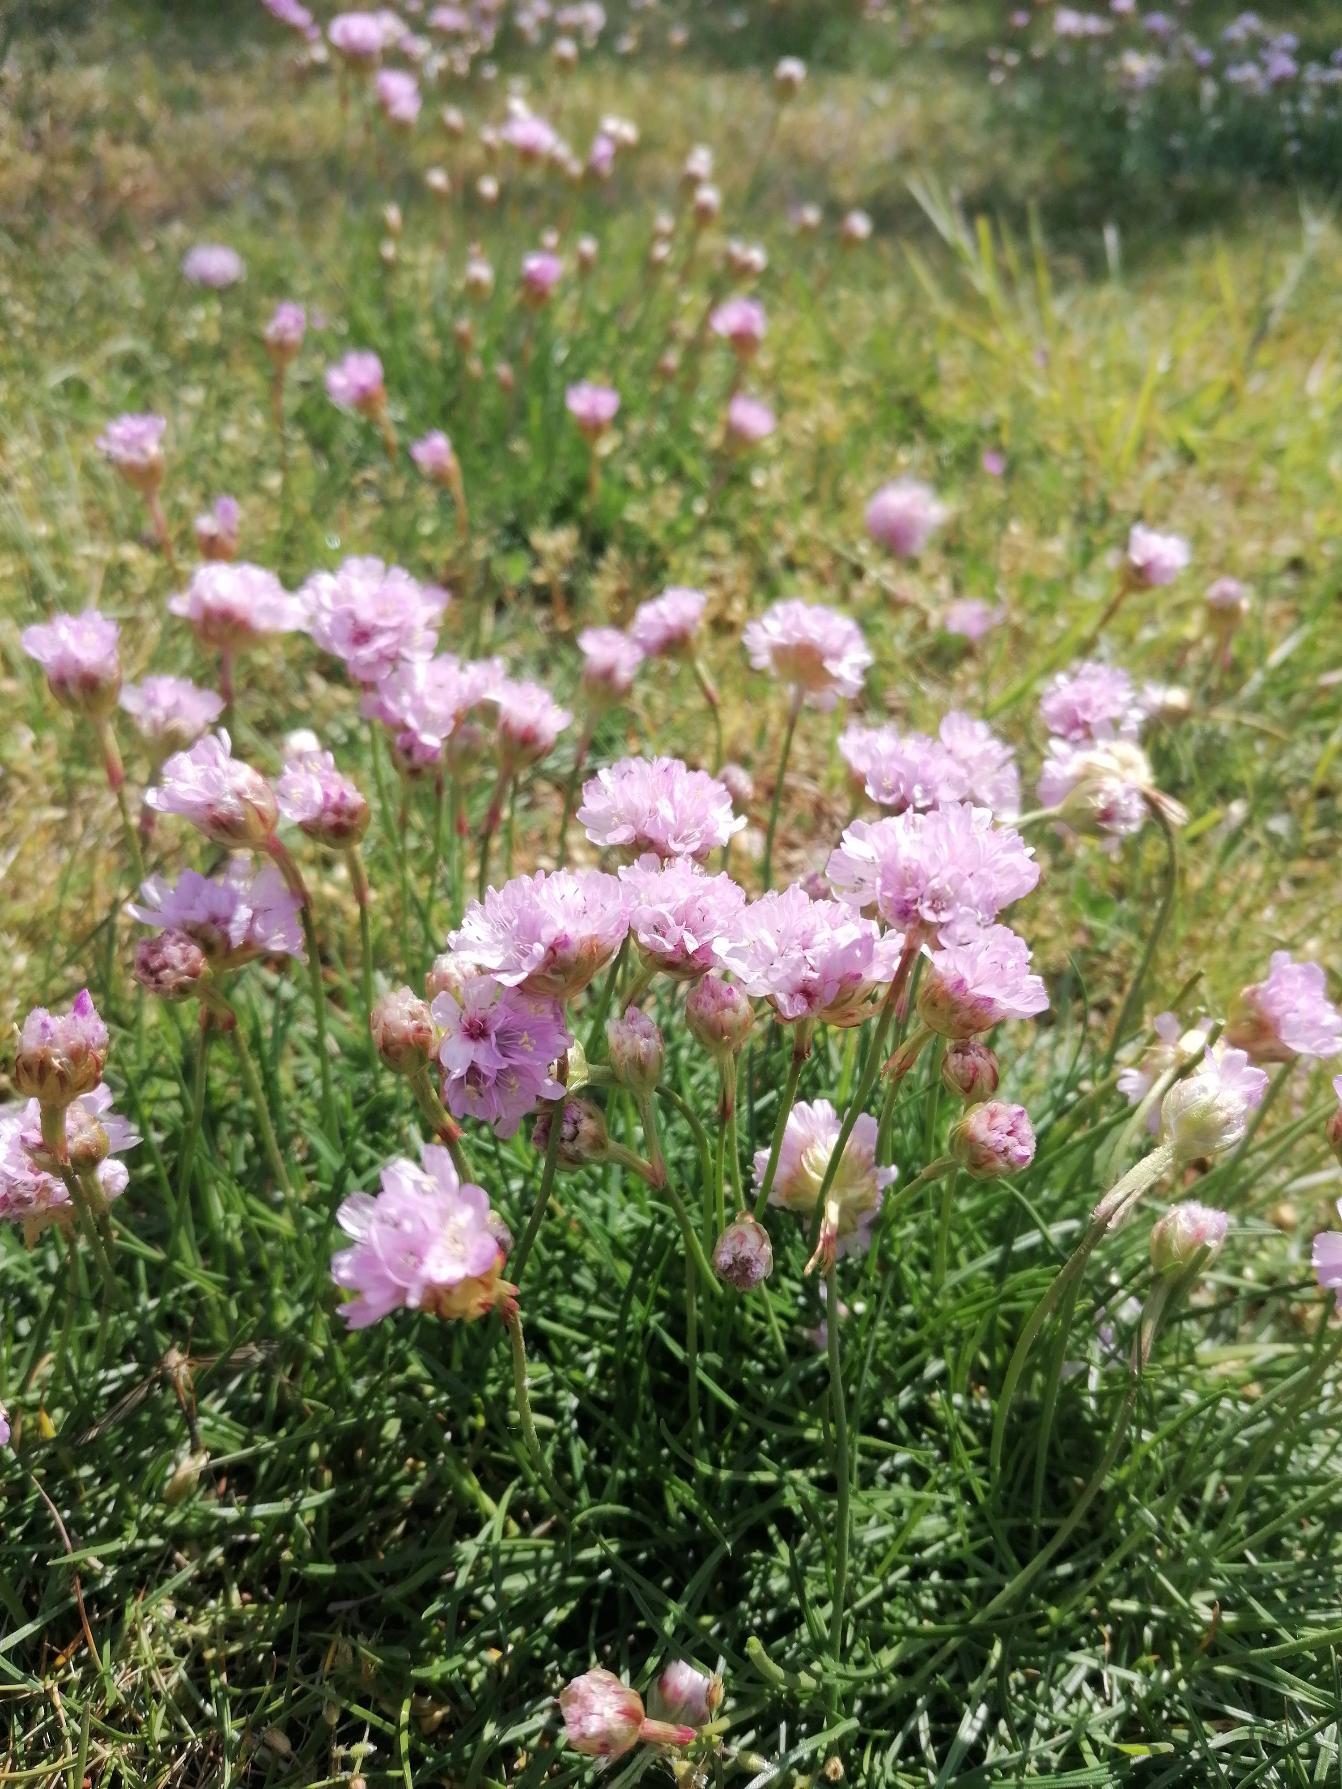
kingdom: Plantae
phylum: Tracheophyta
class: Magnoliopsida
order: Caryophyllales
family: Plumbaginaceae
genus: Armeria
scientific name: Armeria maritima
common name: Engelskgræs
